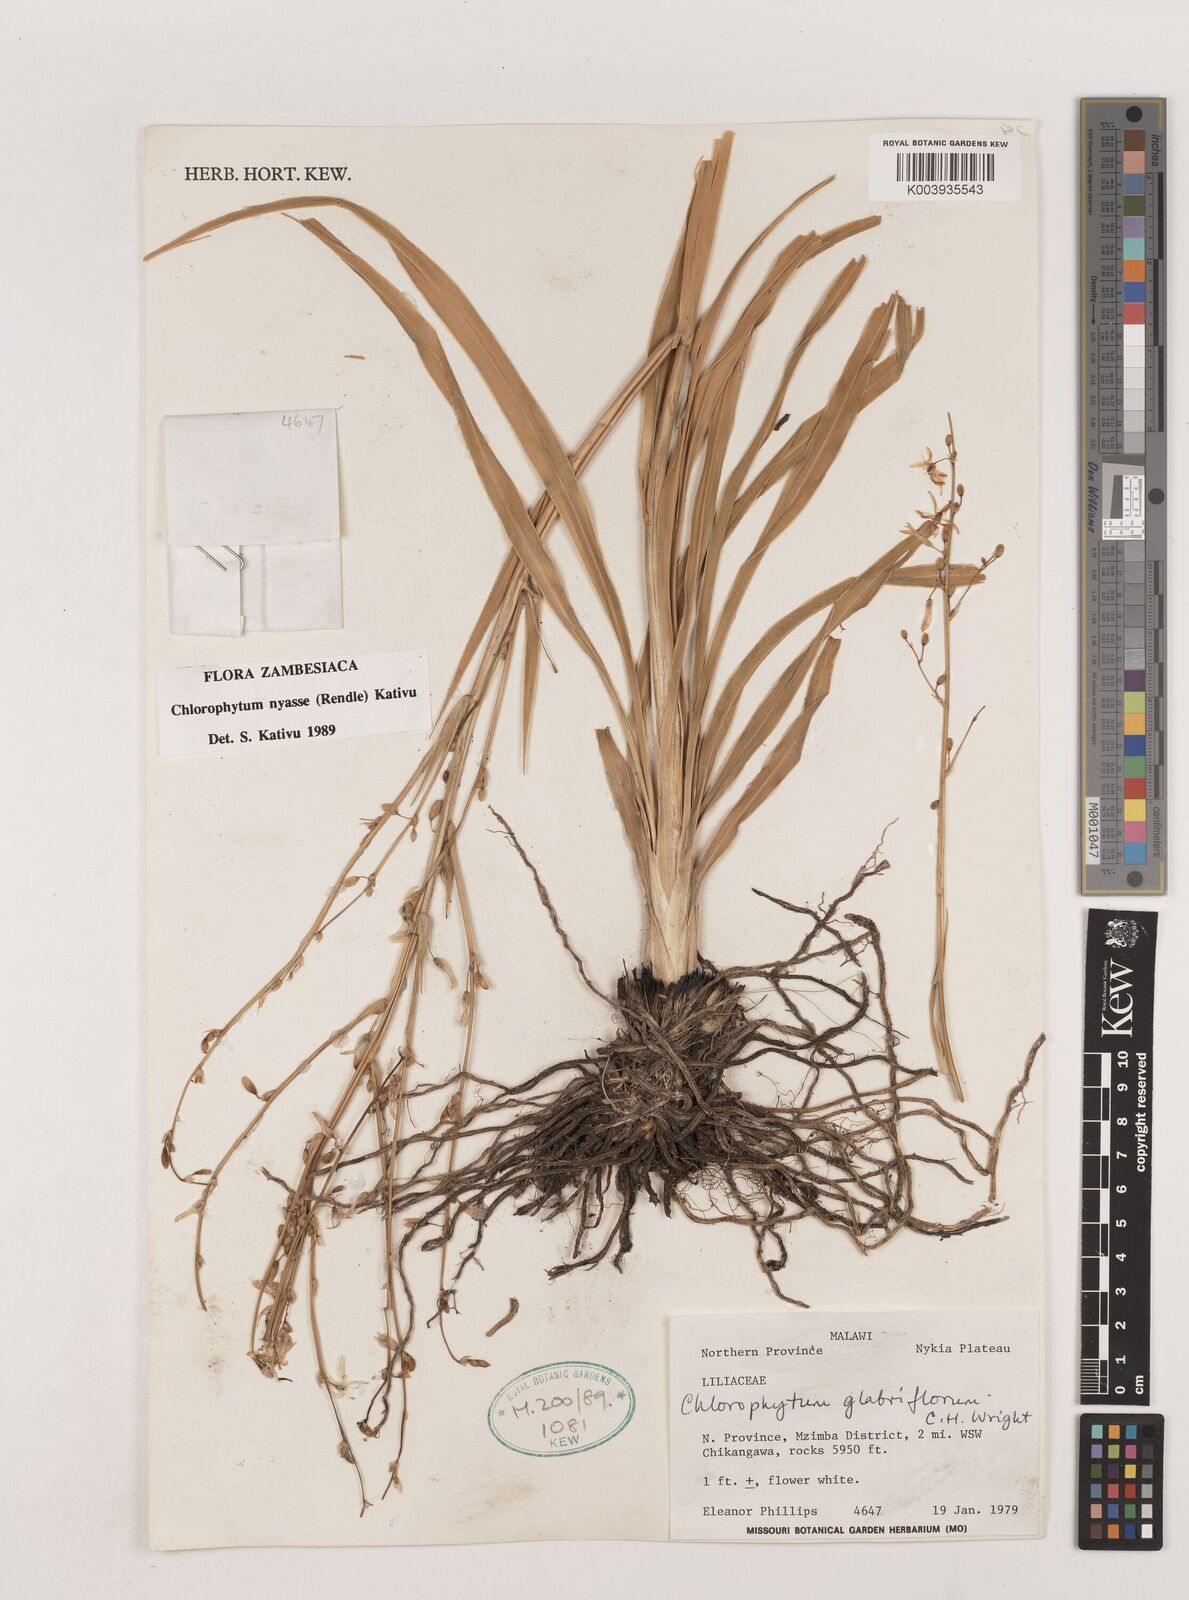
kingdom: Plantae
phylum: Tracheophyta
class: Liliopsida
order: Asparagales
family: Asparagaceae
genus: Chlorophytum
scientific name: Chlorophytum nyasae
